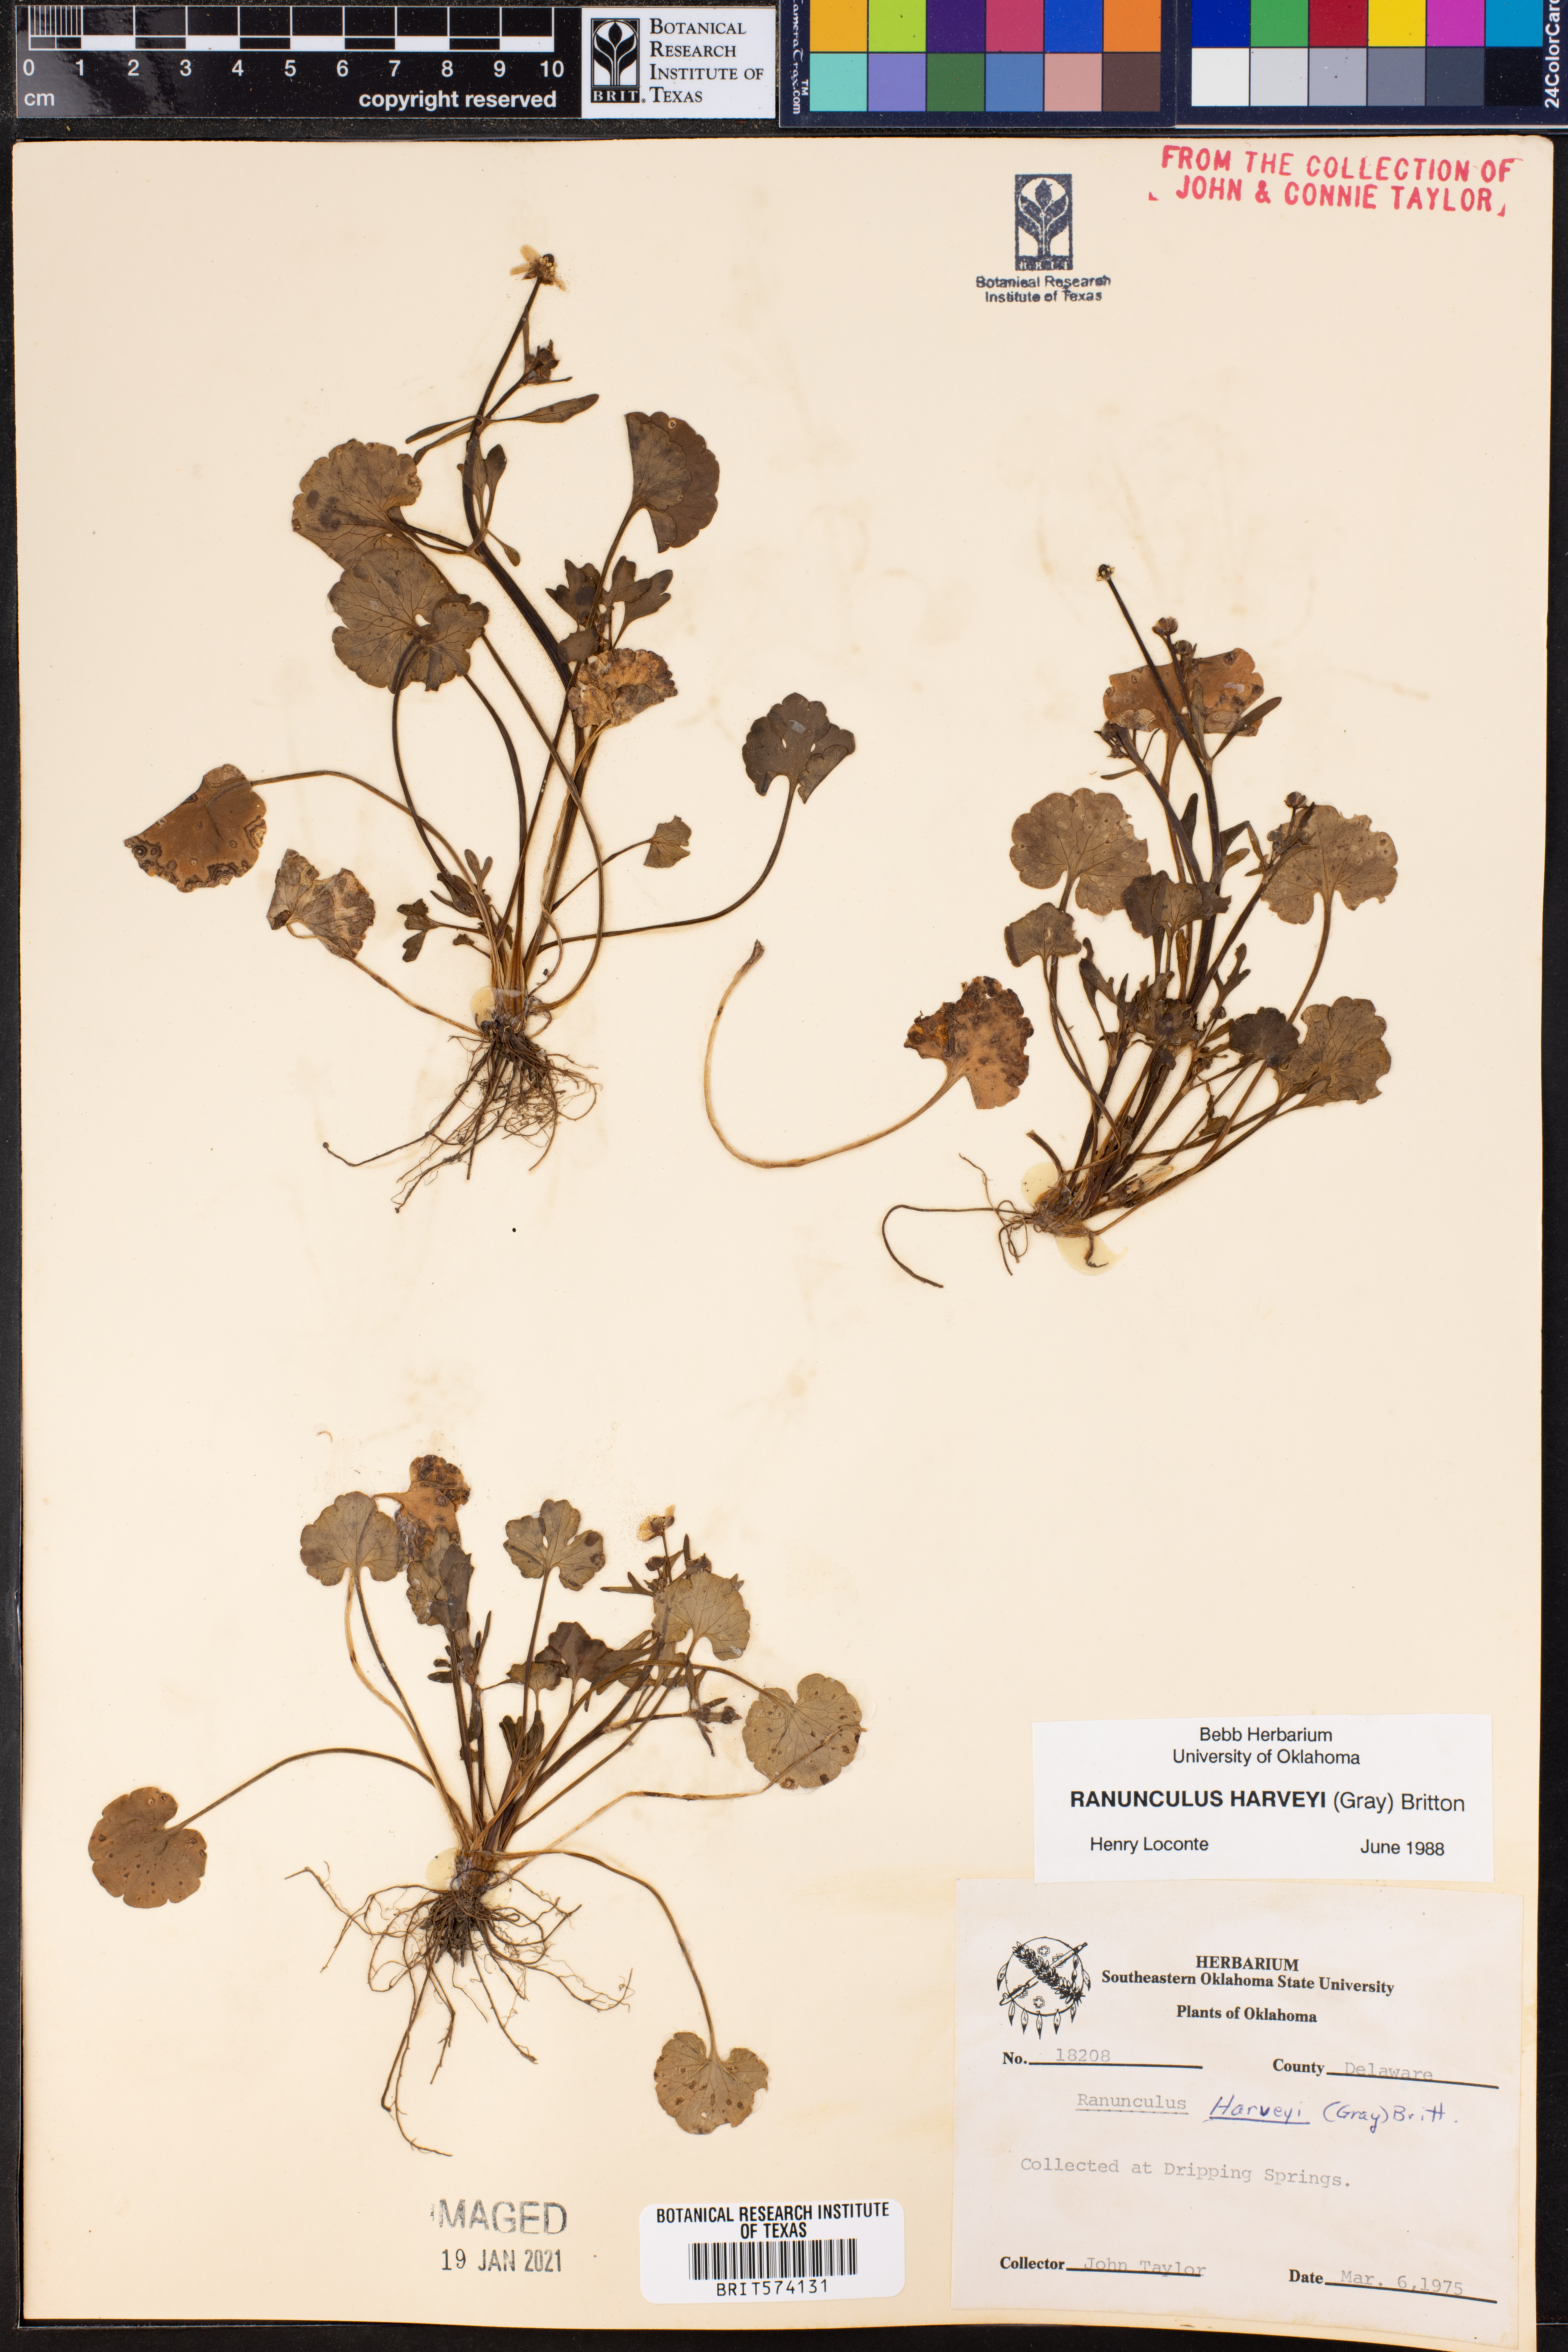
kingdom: Plantae
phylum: Tracheophyta
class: Magnoliopsida
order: Ranunculales
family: Ranunculaceae
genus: Ranunculus
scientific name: Ranunculus harveyi
